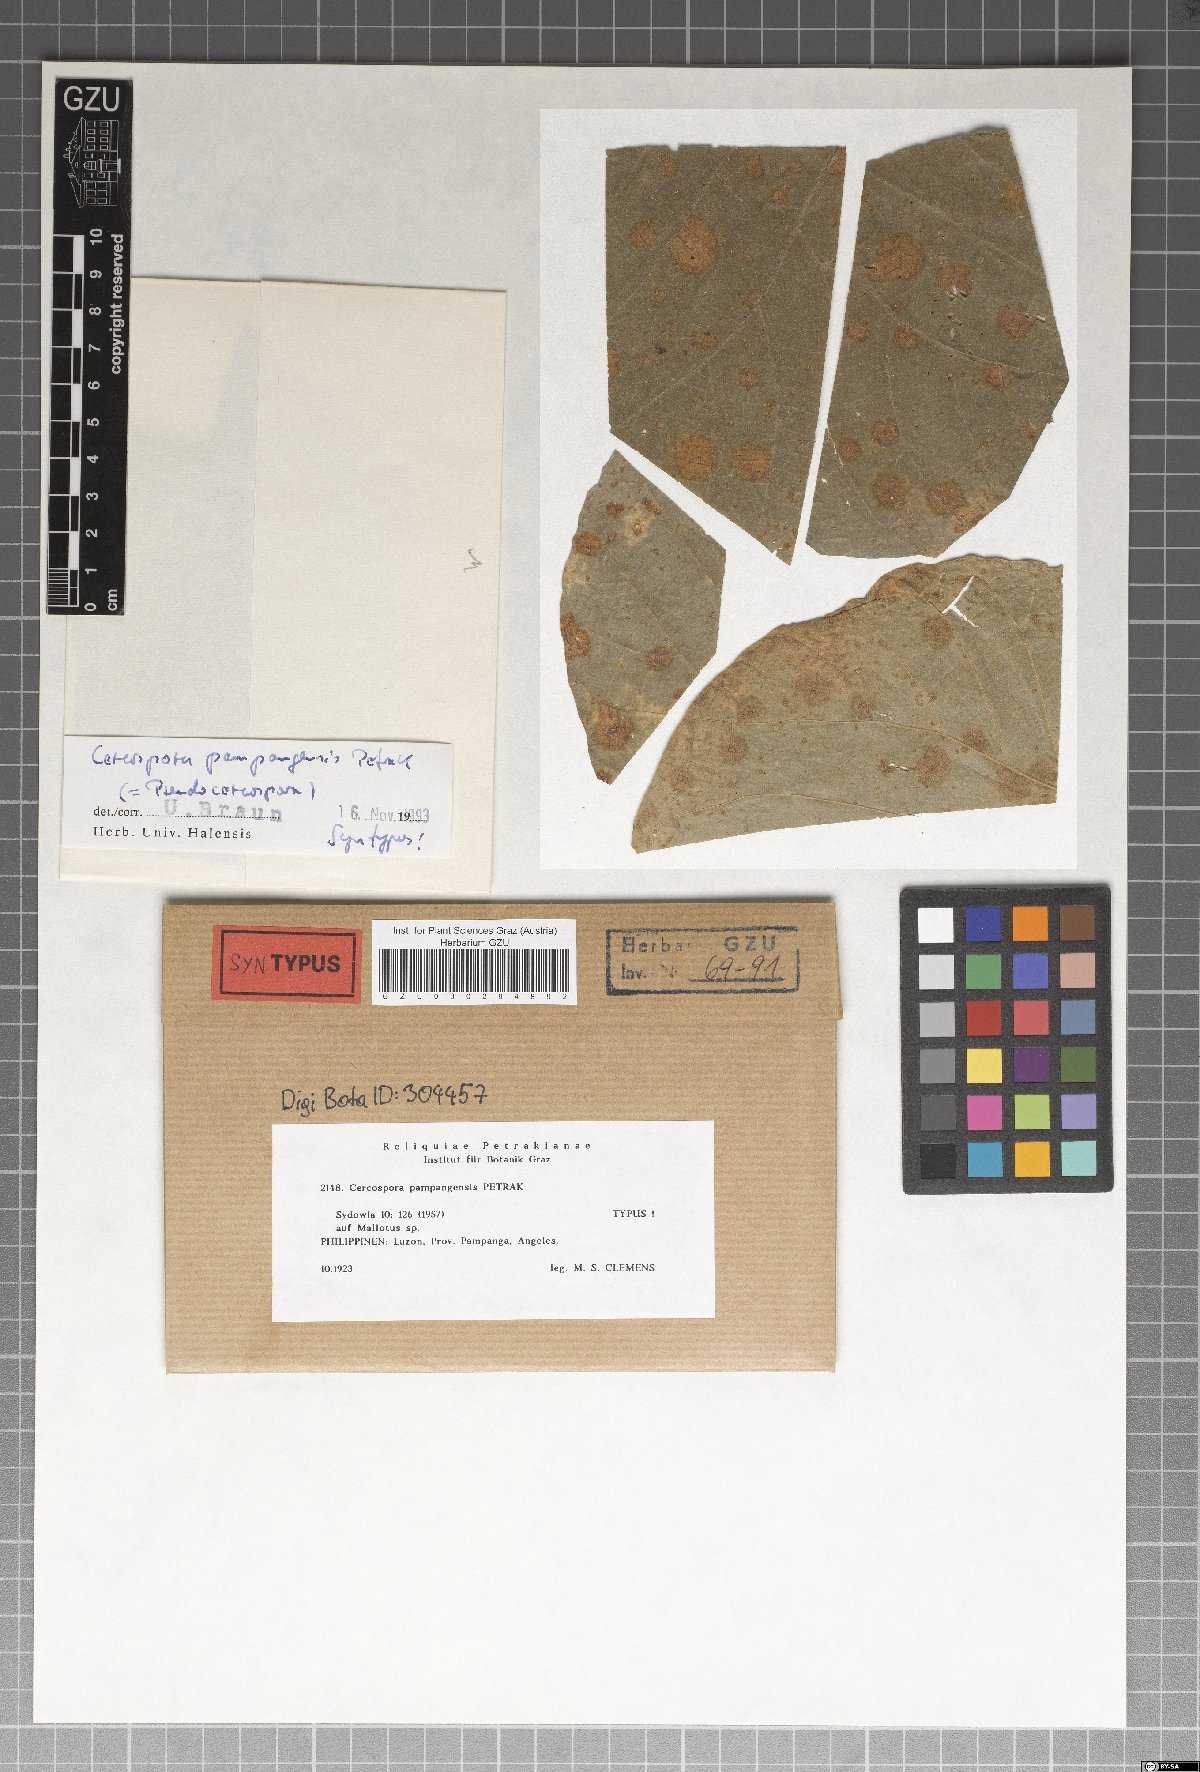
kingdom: Fungi
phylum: Ascomycota
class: Dothideomycetes
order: Mycosphaerellales
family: Mycosphaerellaceae
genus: Pseudocercospora
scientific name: Pseudocercospora pampangensis
